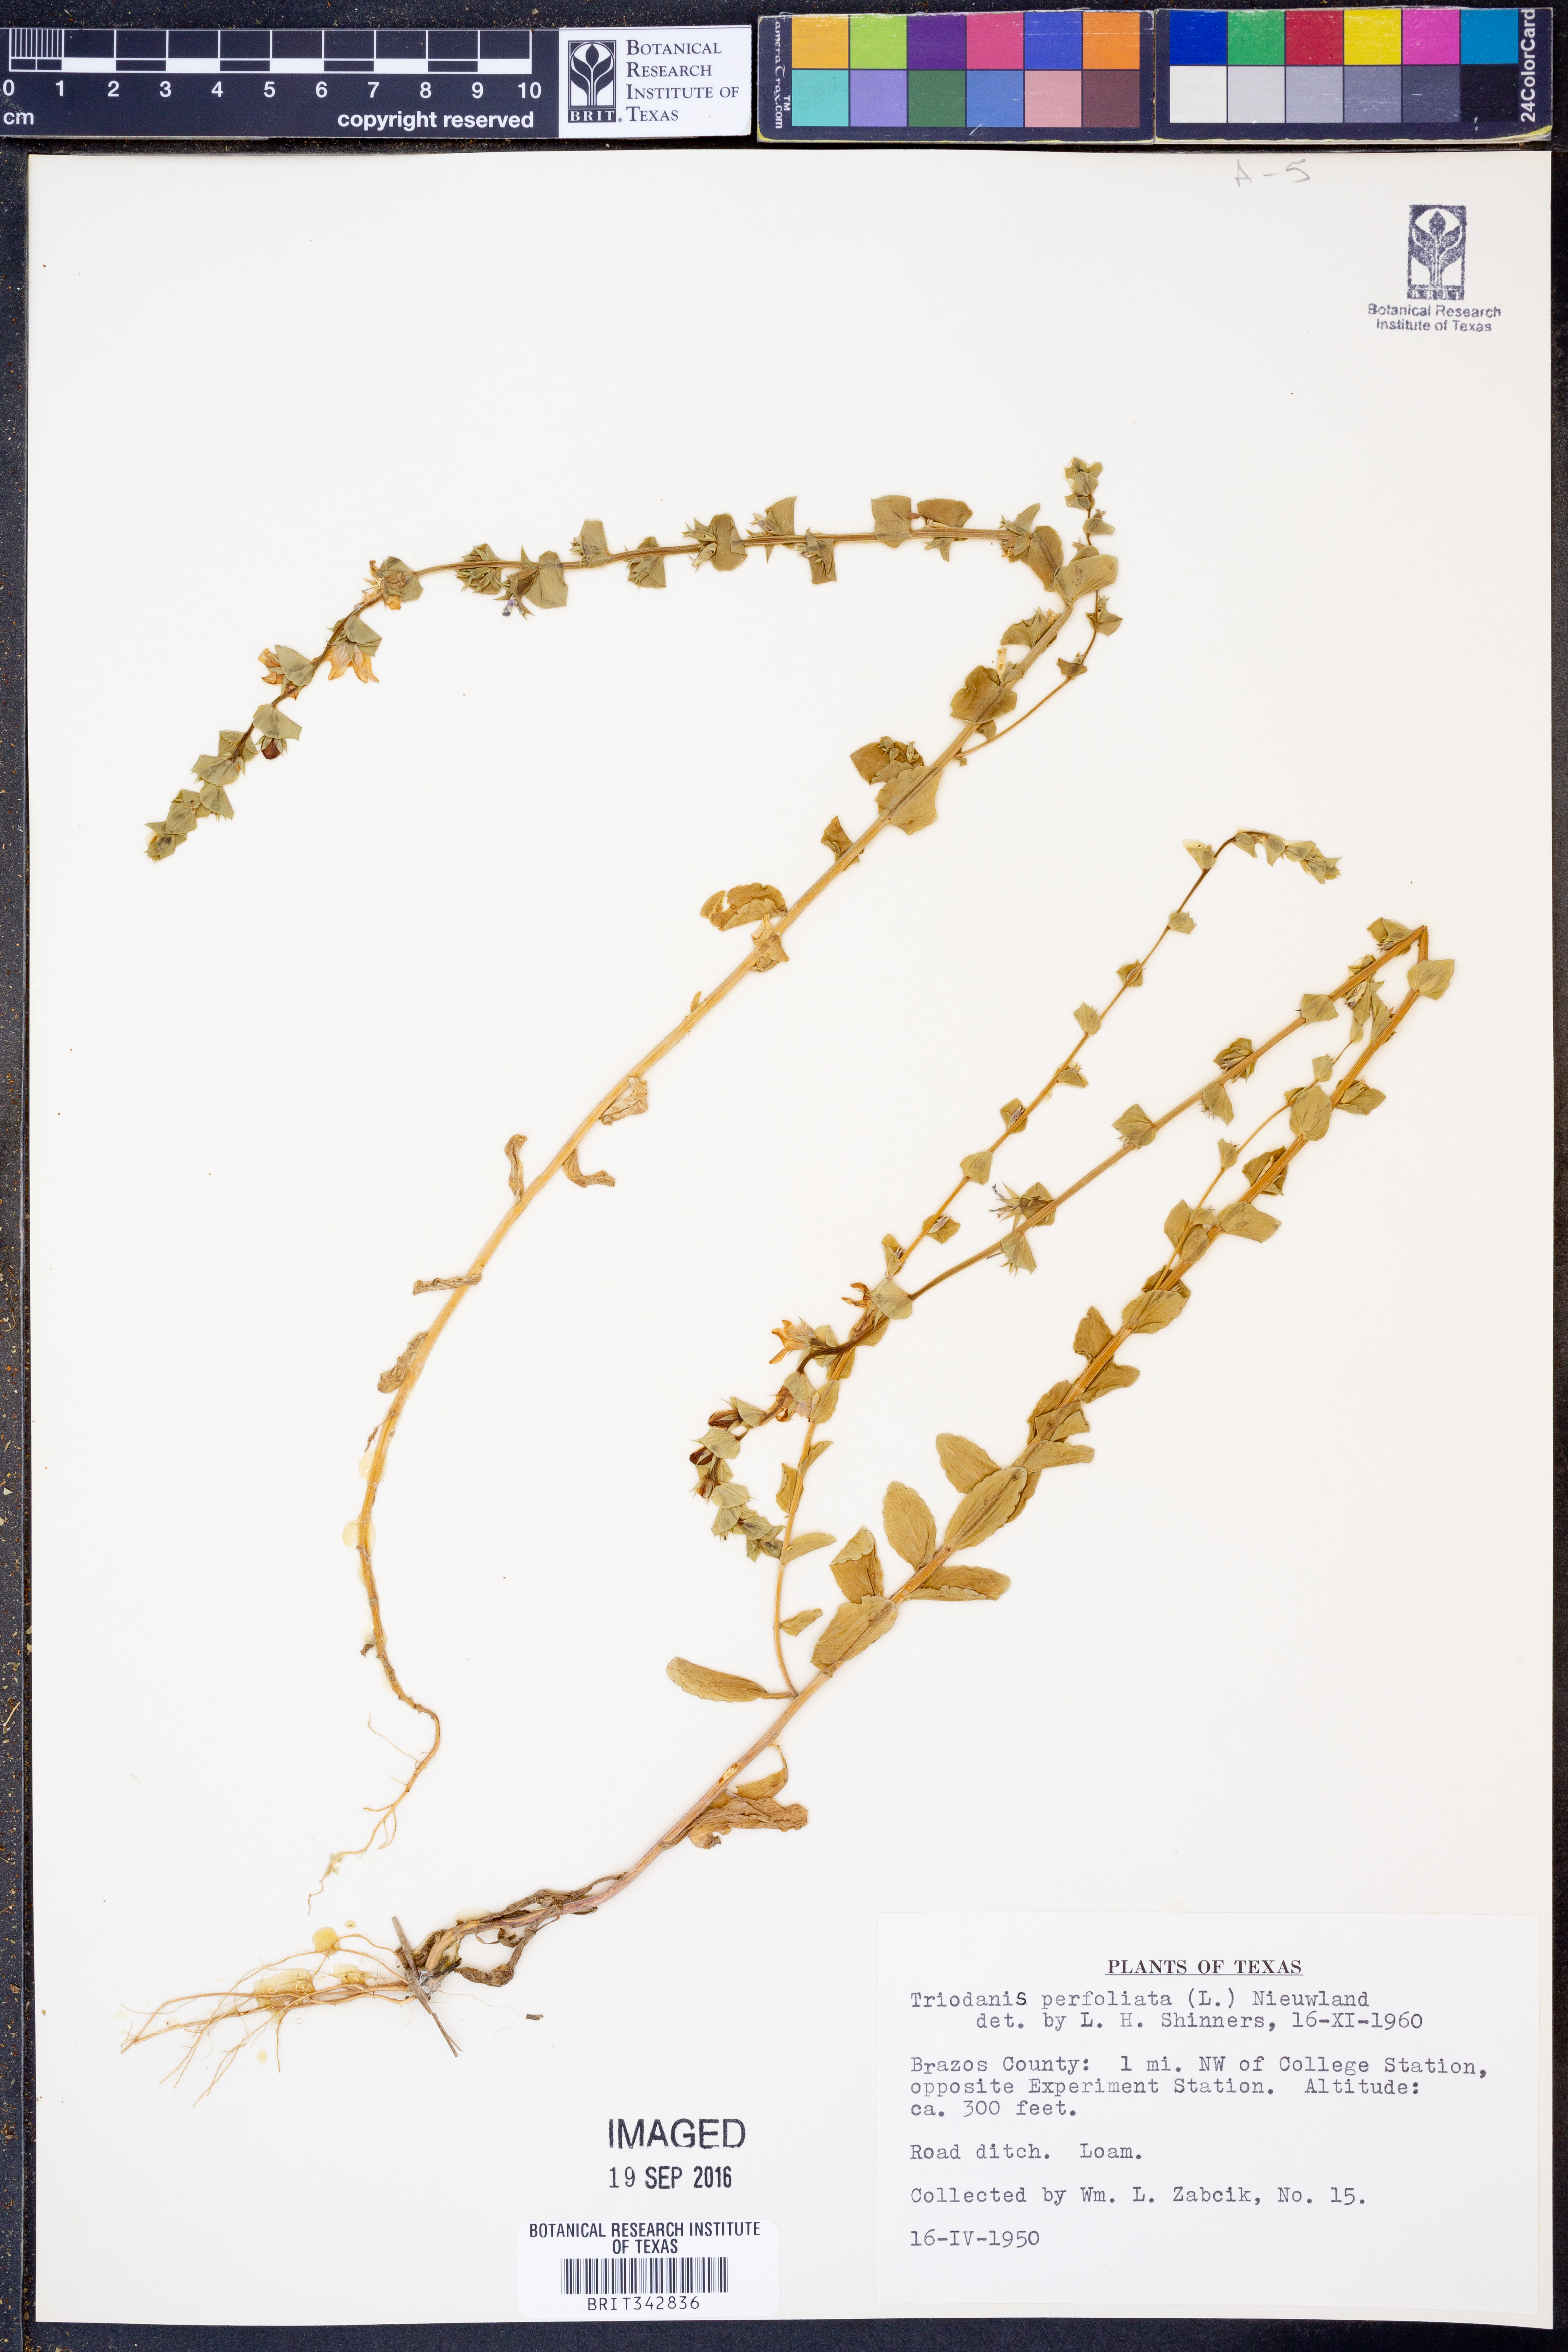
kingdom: Plantae
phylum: Tracheophyta
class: Magnoliopsida
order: Asterales
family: Campanulaceae
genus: Triodanis
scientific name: Triodanis perfoliata
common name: Clasping venus' looking-glass
